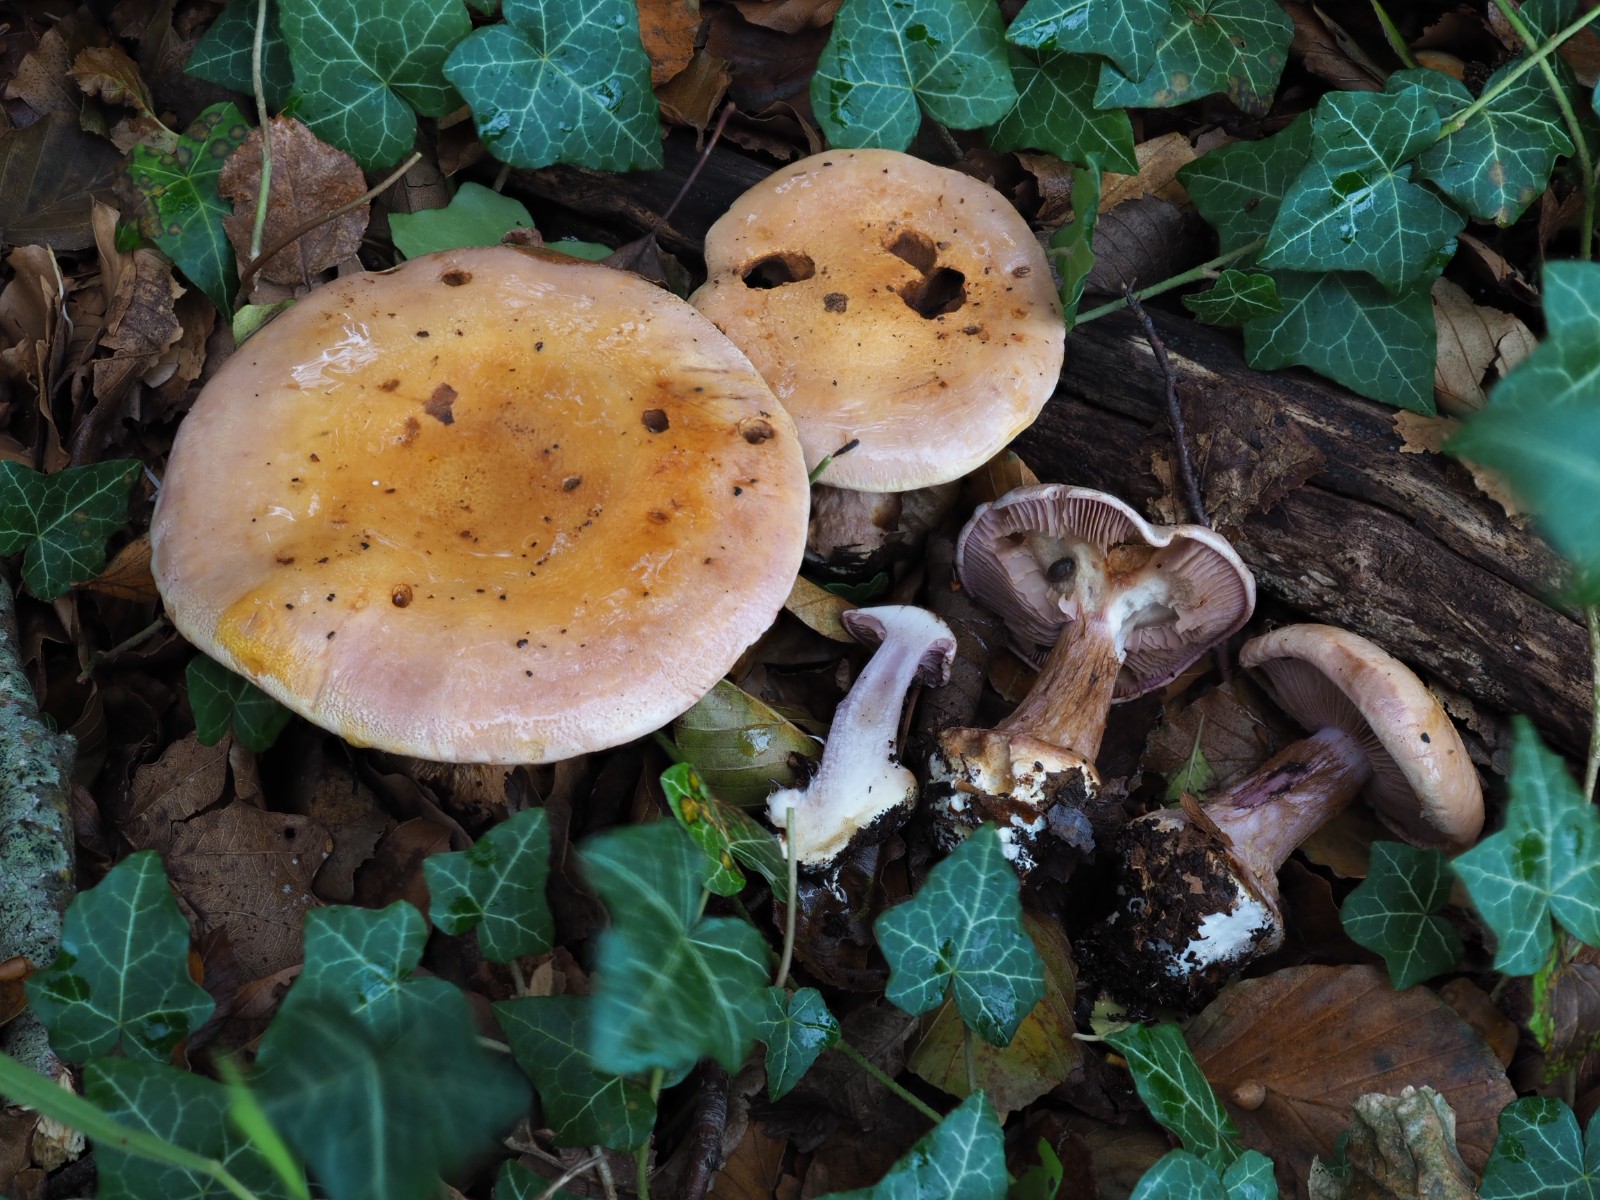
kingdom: Fungi
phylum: Basidiomycota
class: Agaricomycetes
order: Agaricales
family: Cortinariaceae
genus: Calonarius
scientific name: Calonarius suaveolens
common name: sødtduftende slørhat
